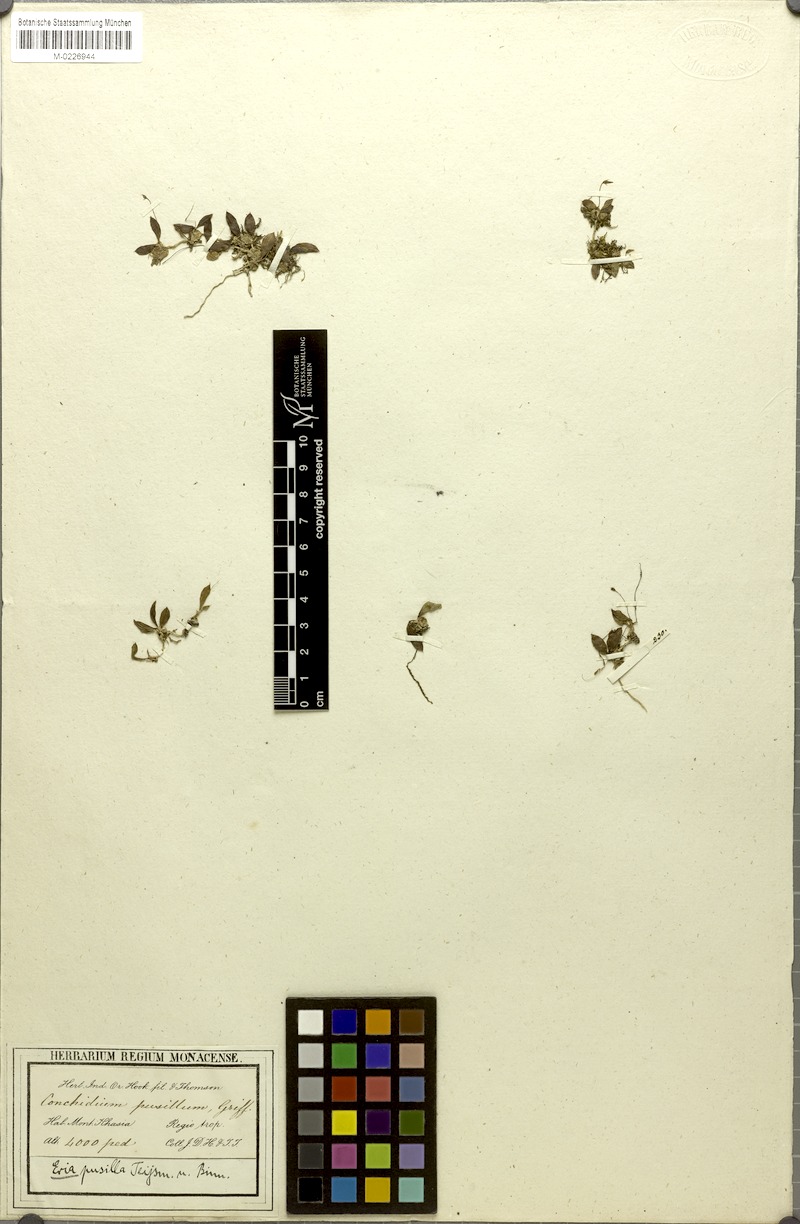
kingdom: Plantae
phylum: Tracheophyta
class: Liliopsida
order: Asparagales
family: Orchidaceae
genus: Porpax
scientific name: Porpax pusilla
